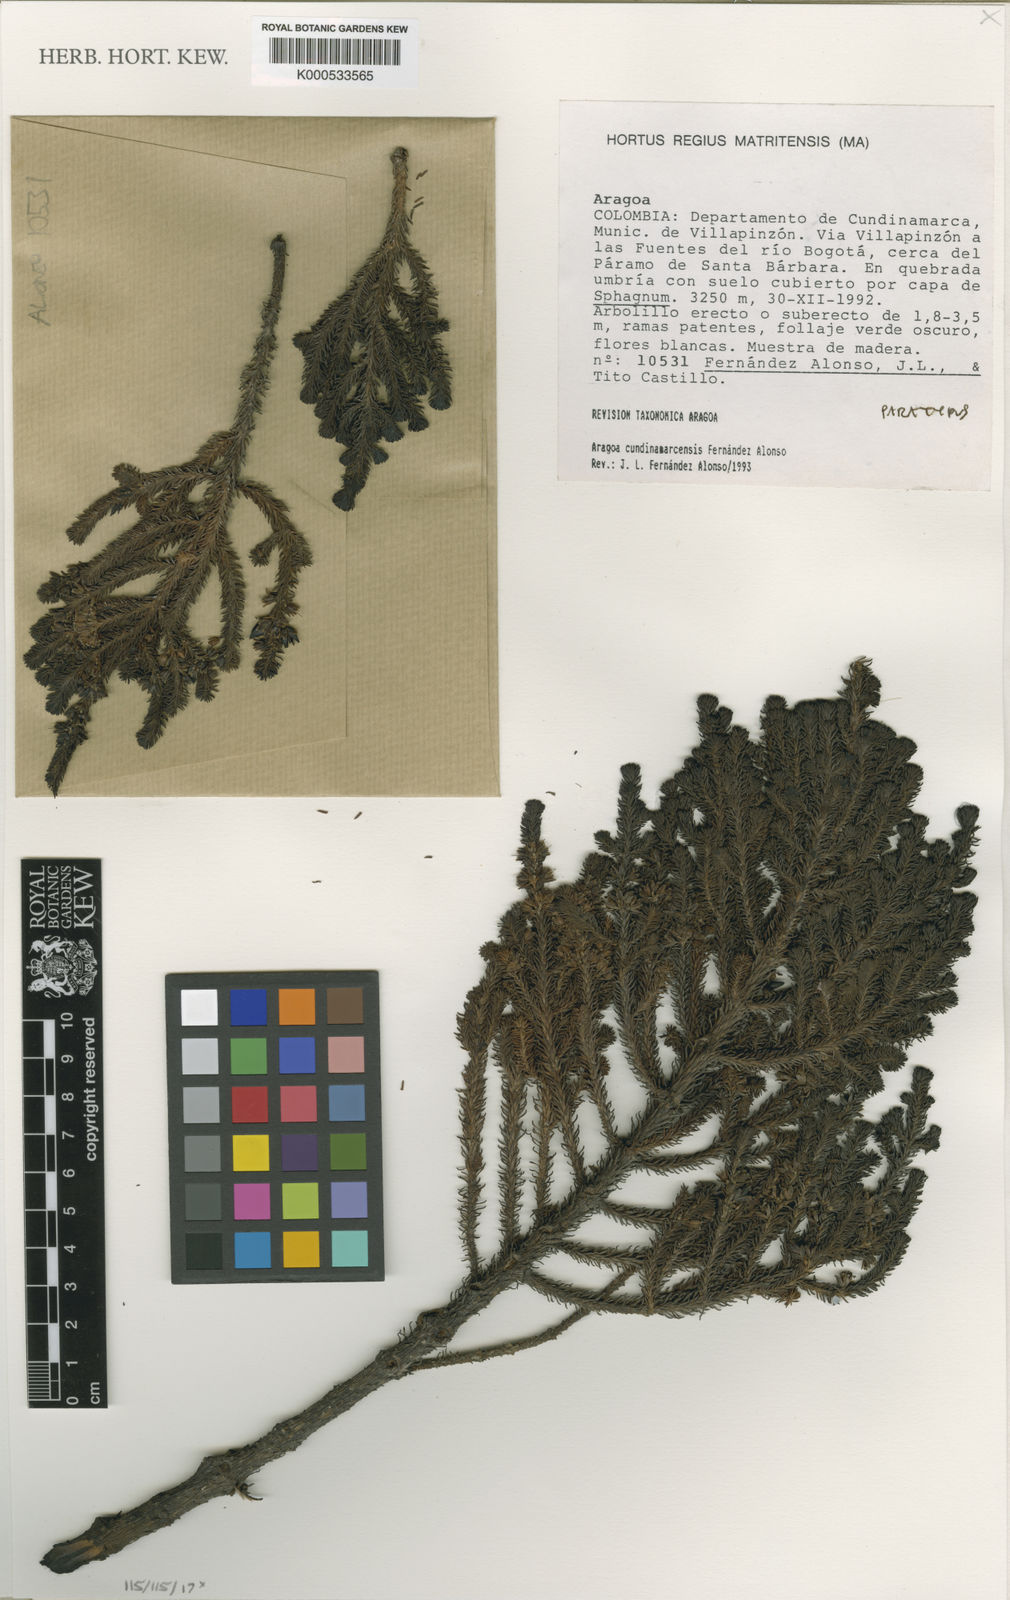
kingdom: Plantae
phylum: Tracheophyta
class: Magnoliopsida
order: Lamiales
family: Plantaginaceae
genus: Aragoa
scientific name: Aragoa cundinamarcensis
